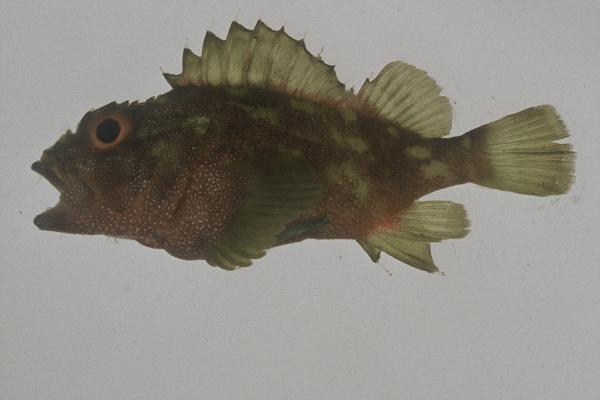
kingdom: Animalia
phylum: Chordata
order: Scorpaeniformes
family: Scorpaenidae
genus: Sebastapistes
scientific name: Sebastapistes cyanostigma
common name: Yellowspotted scorpionfish
